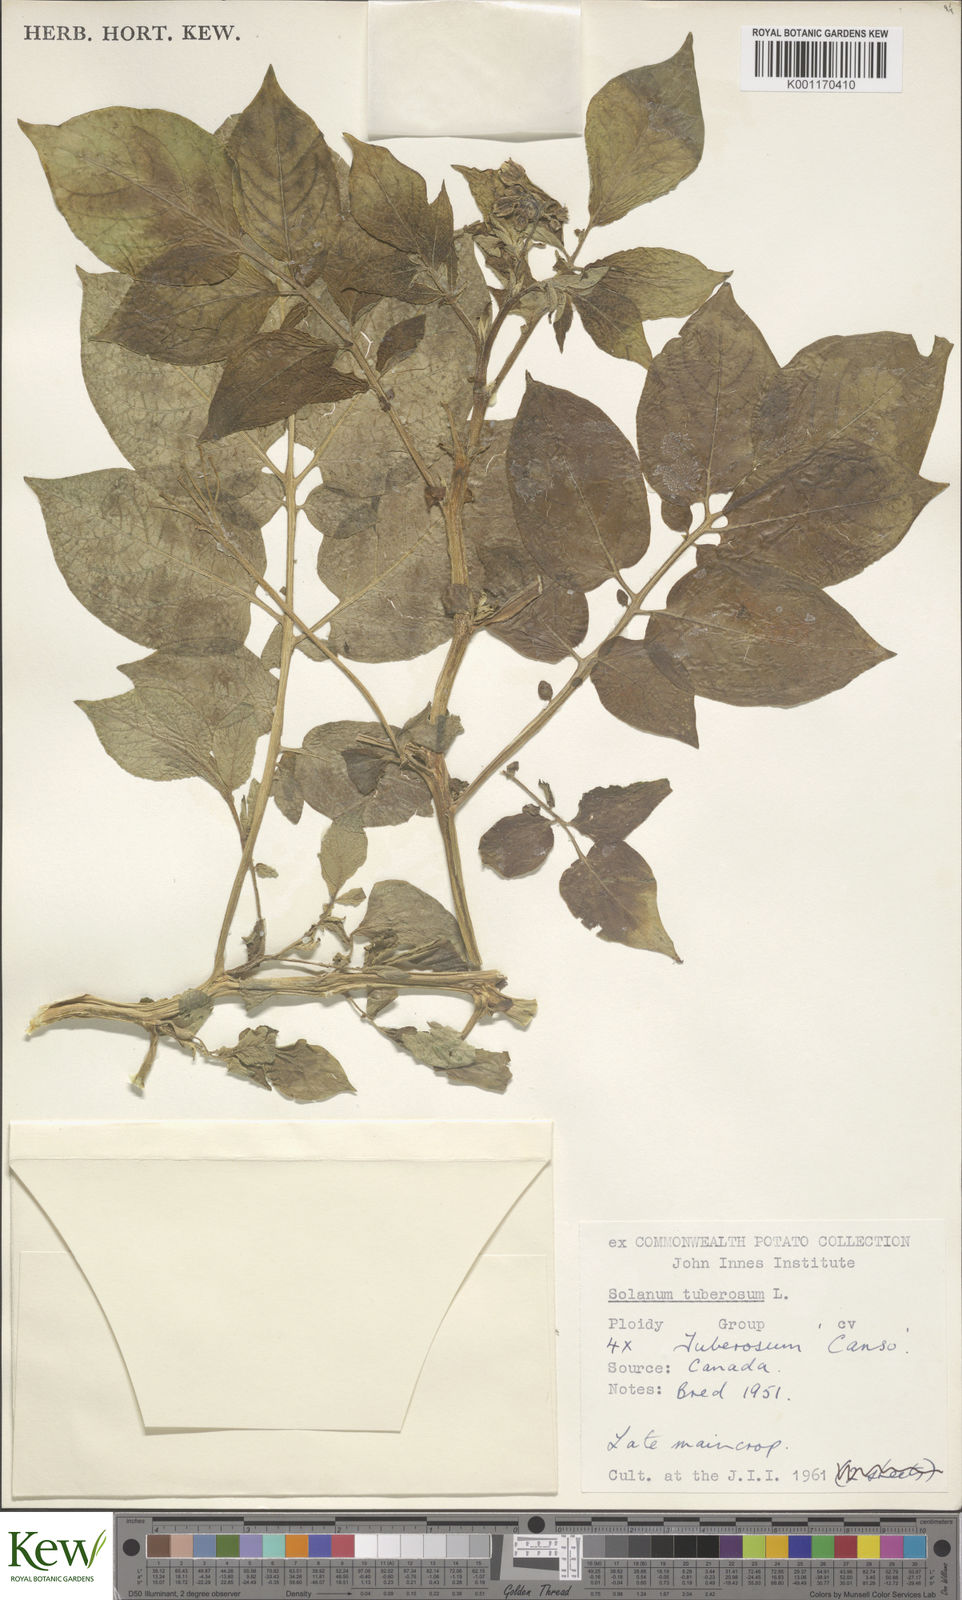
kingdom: Plantae
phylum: Tracheophyta
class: Magnoliopsida
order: Solanales
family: Solanaceae
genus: Solanum
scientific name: Solanum tuberosum
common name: Potato
